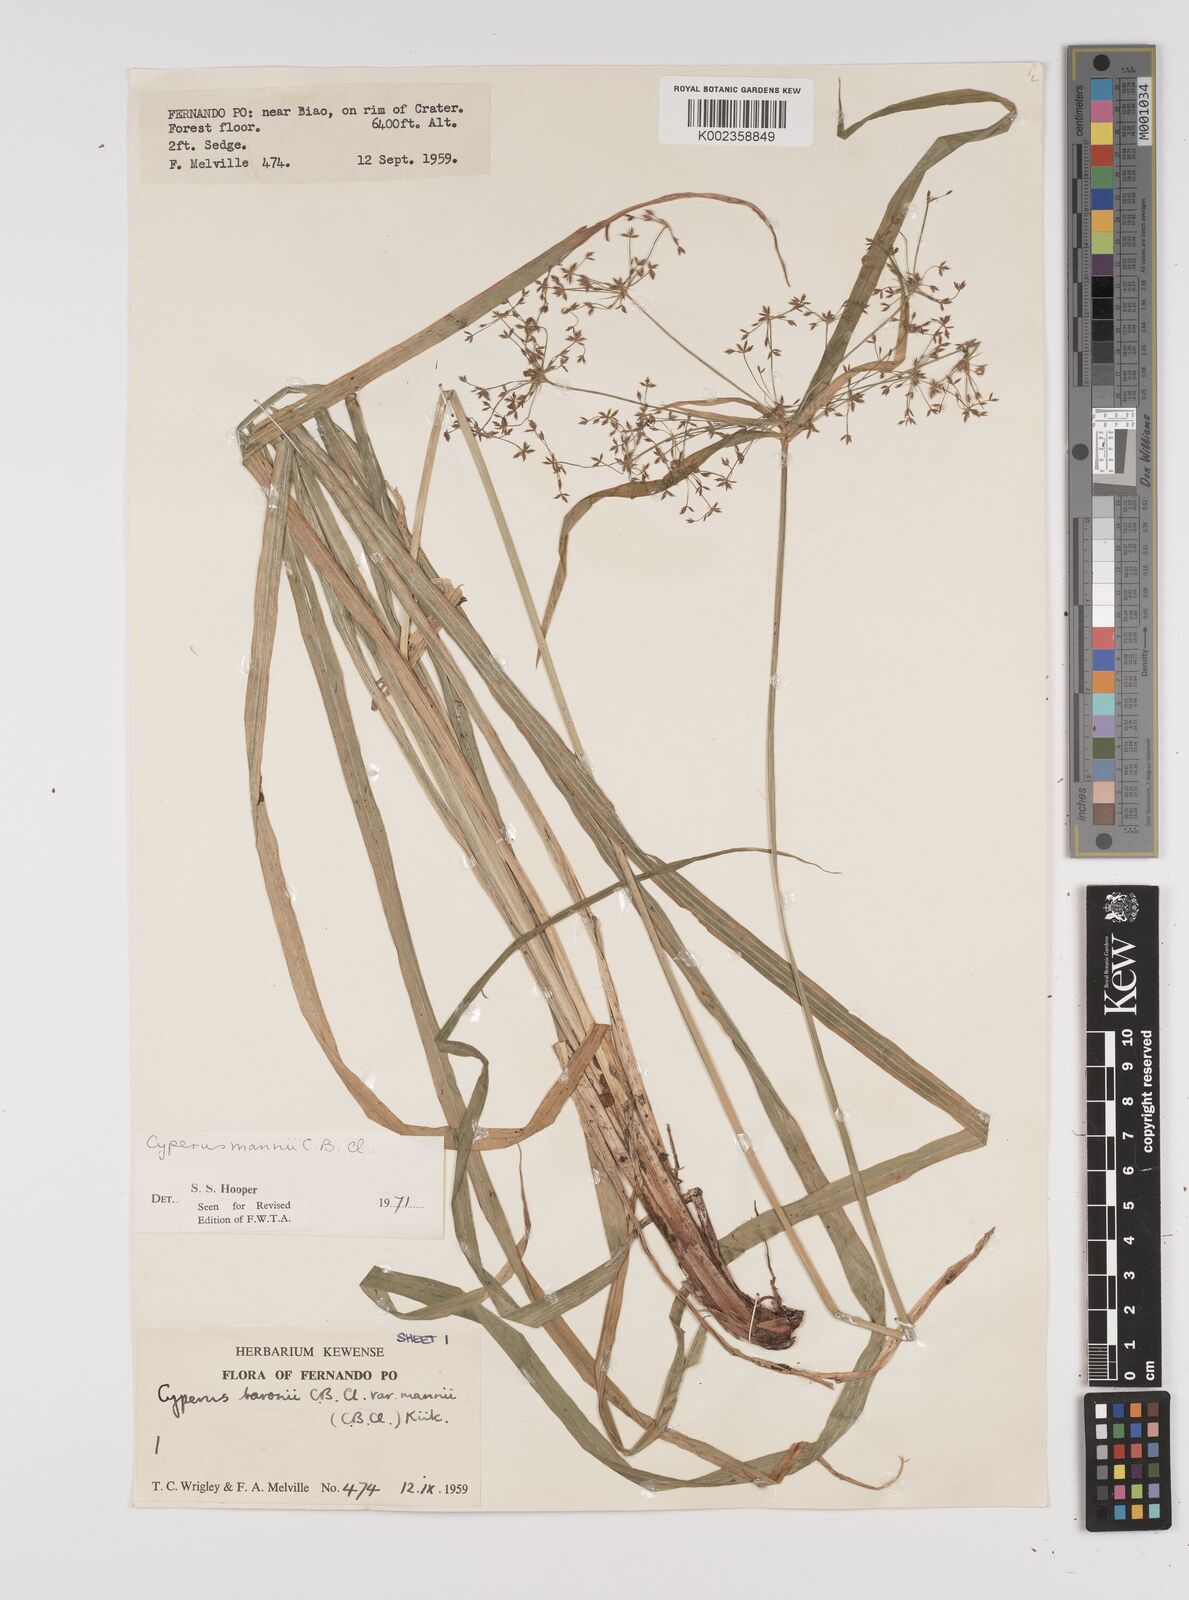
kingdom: Plantae
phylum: Tracheophyta
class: Liliopsida
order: Poales
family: Cyperaceae
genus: Cyperus
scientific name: Cyperus baronii
